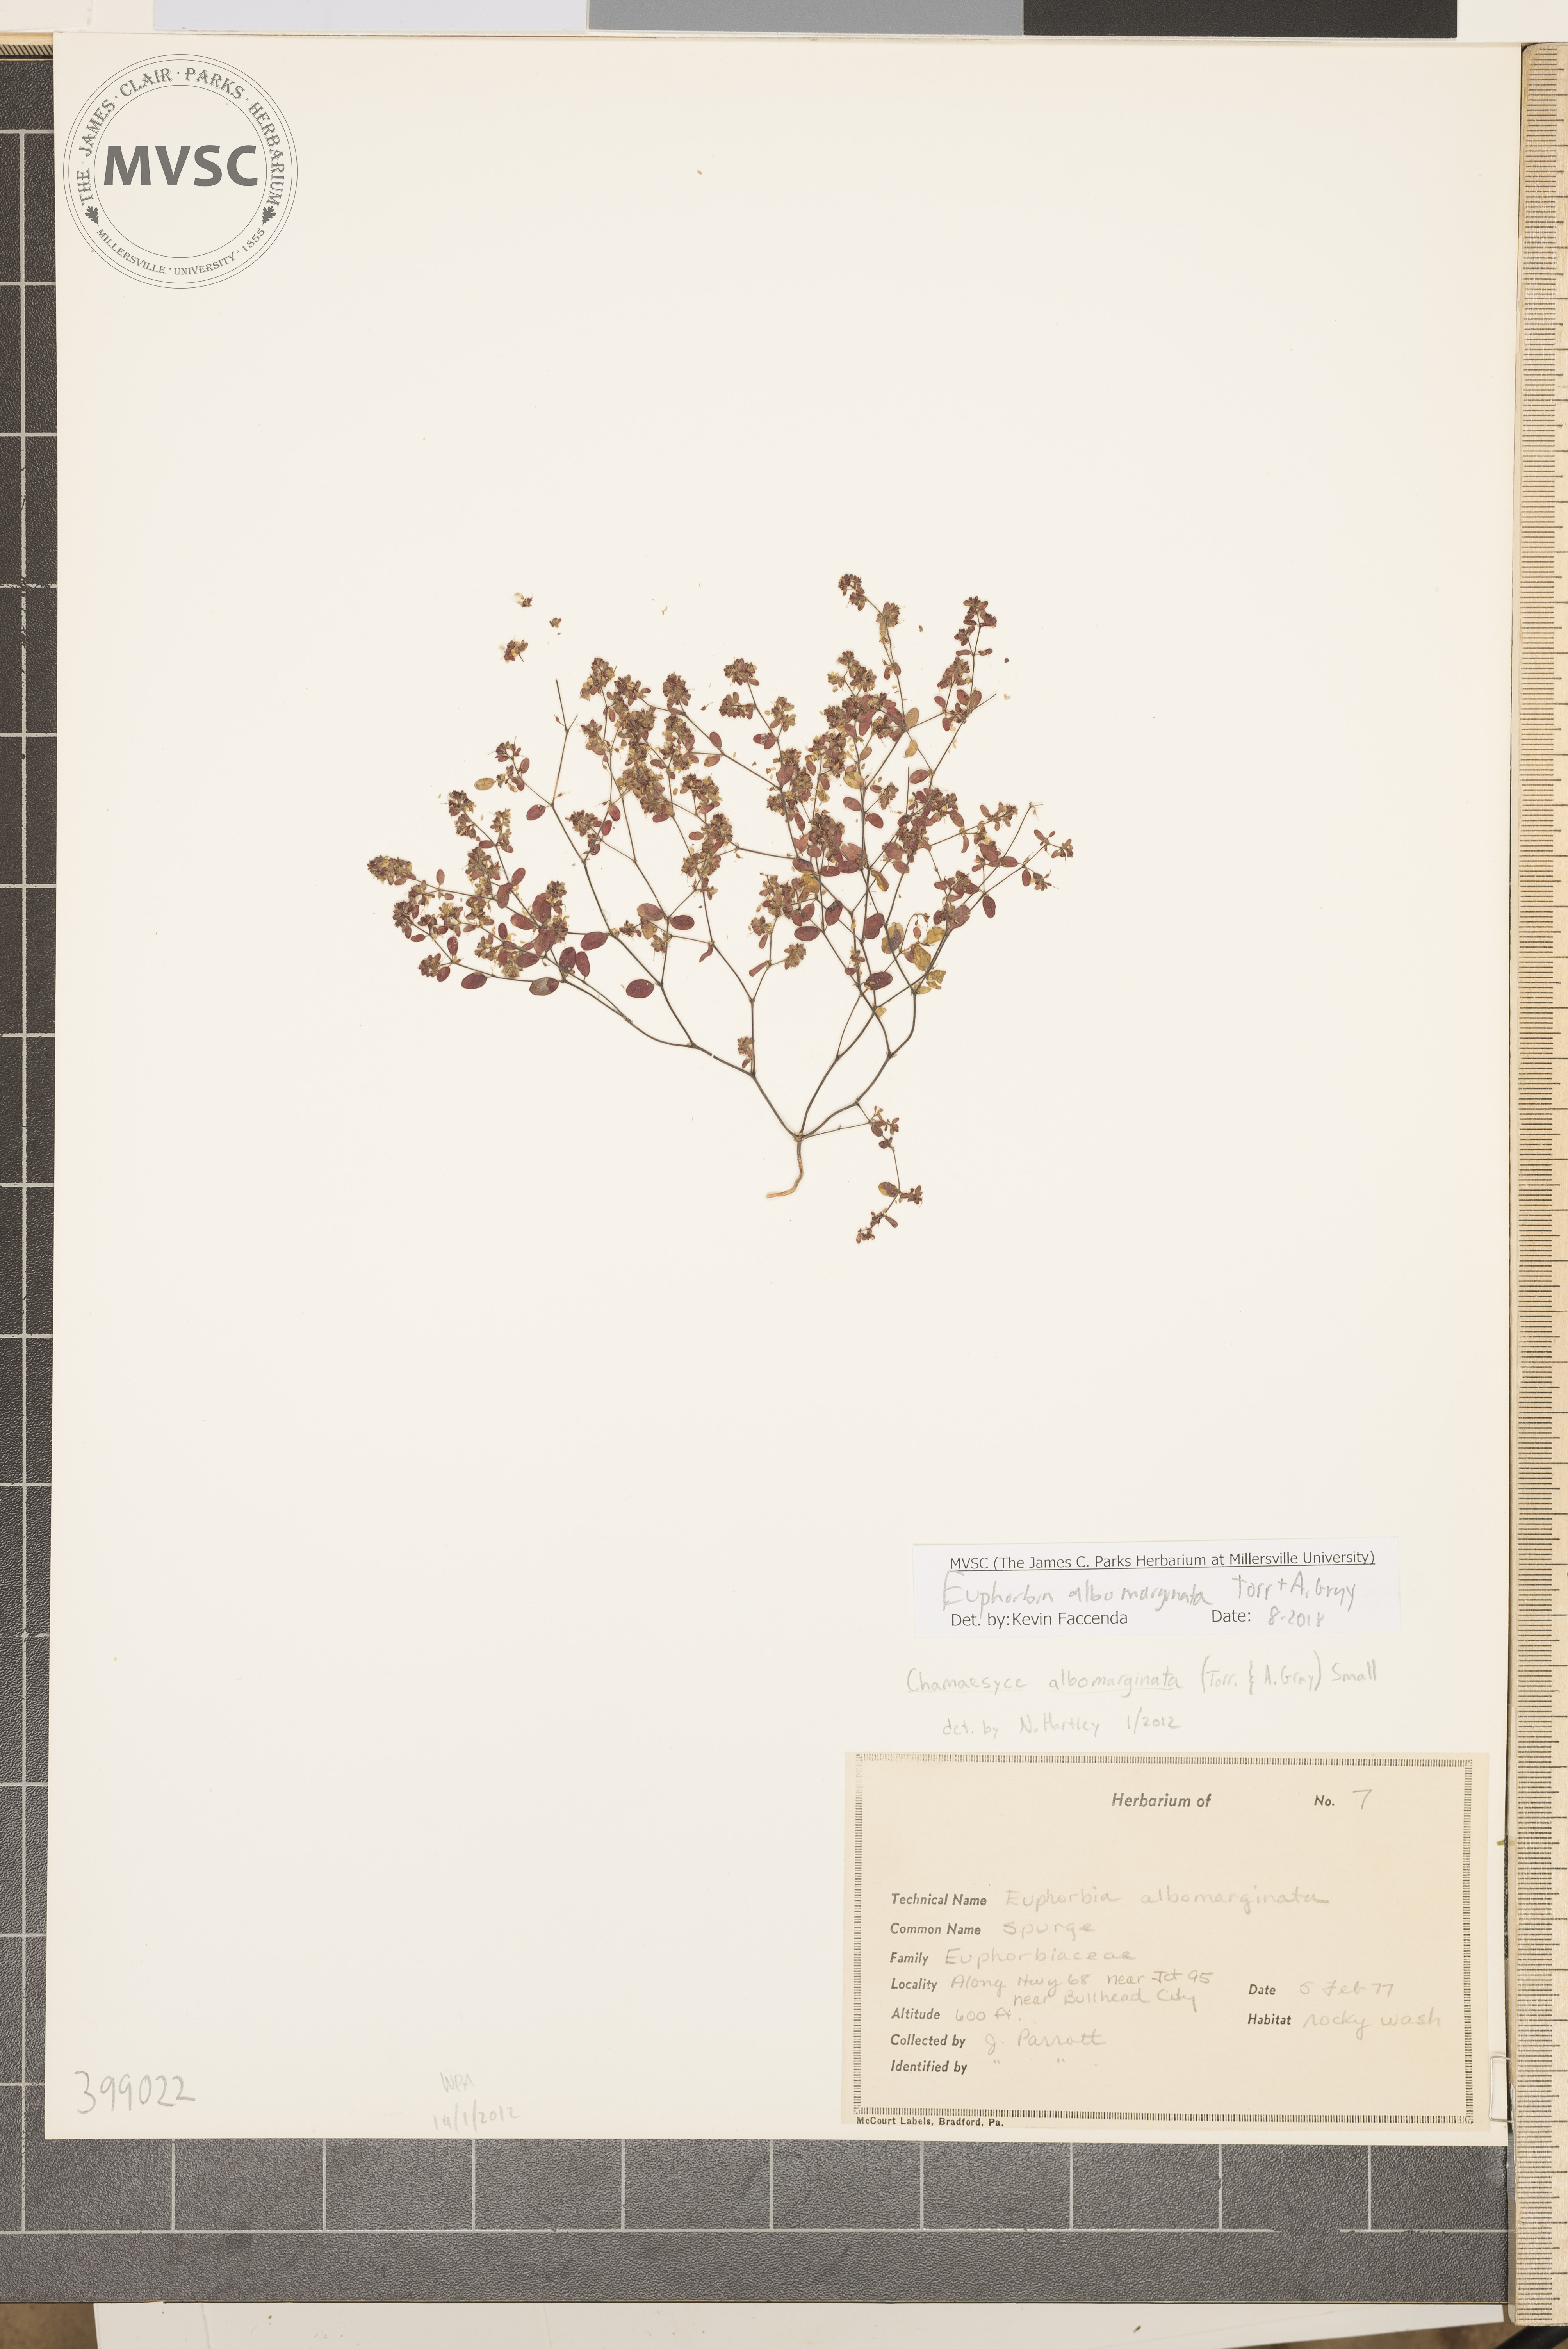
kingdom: Plantae
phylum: Tracheophyta
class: Magnoliopsida
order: Malpighiales
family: Euphorbiaceae
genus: Euphorbia
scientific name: Euphorbia albomarginata
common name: Devil's-bit
